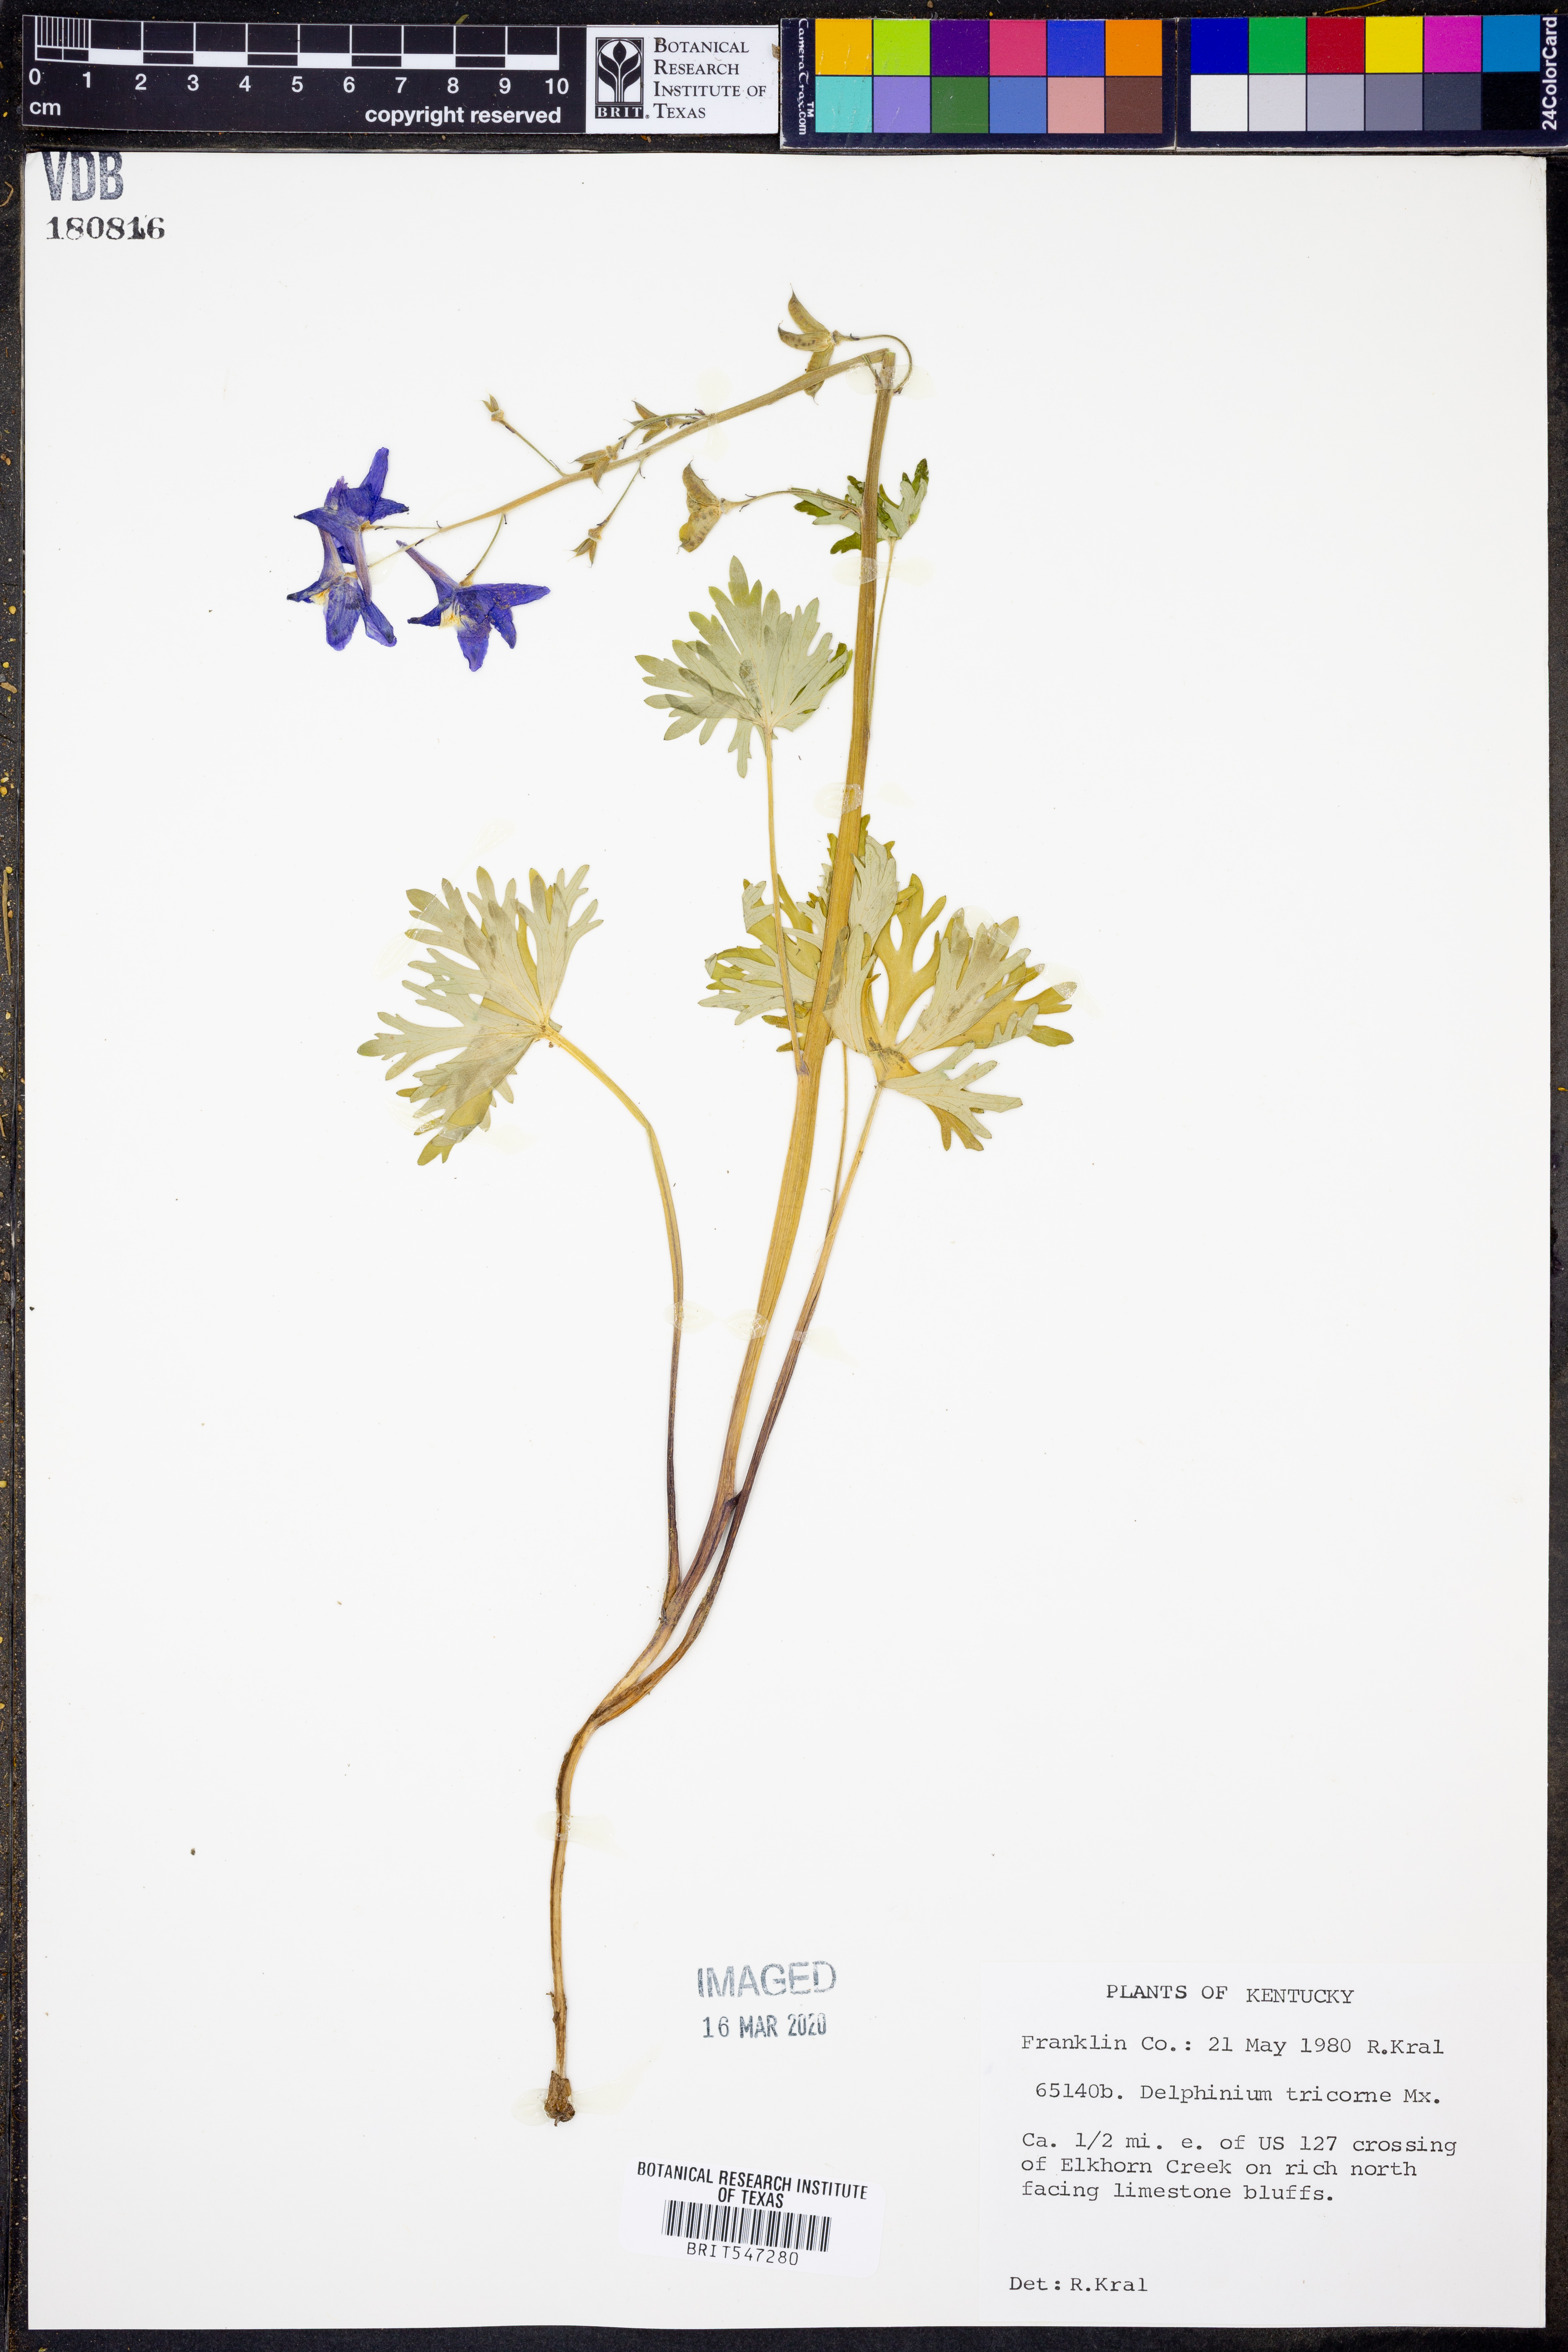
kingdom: Plantae
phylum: Tracheophyta
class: Magnoliopsida
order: Ranunculales
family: Ranunculaceae
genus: Delphinium
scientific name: Delphinium tricorne
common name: Dwarf larkspur
